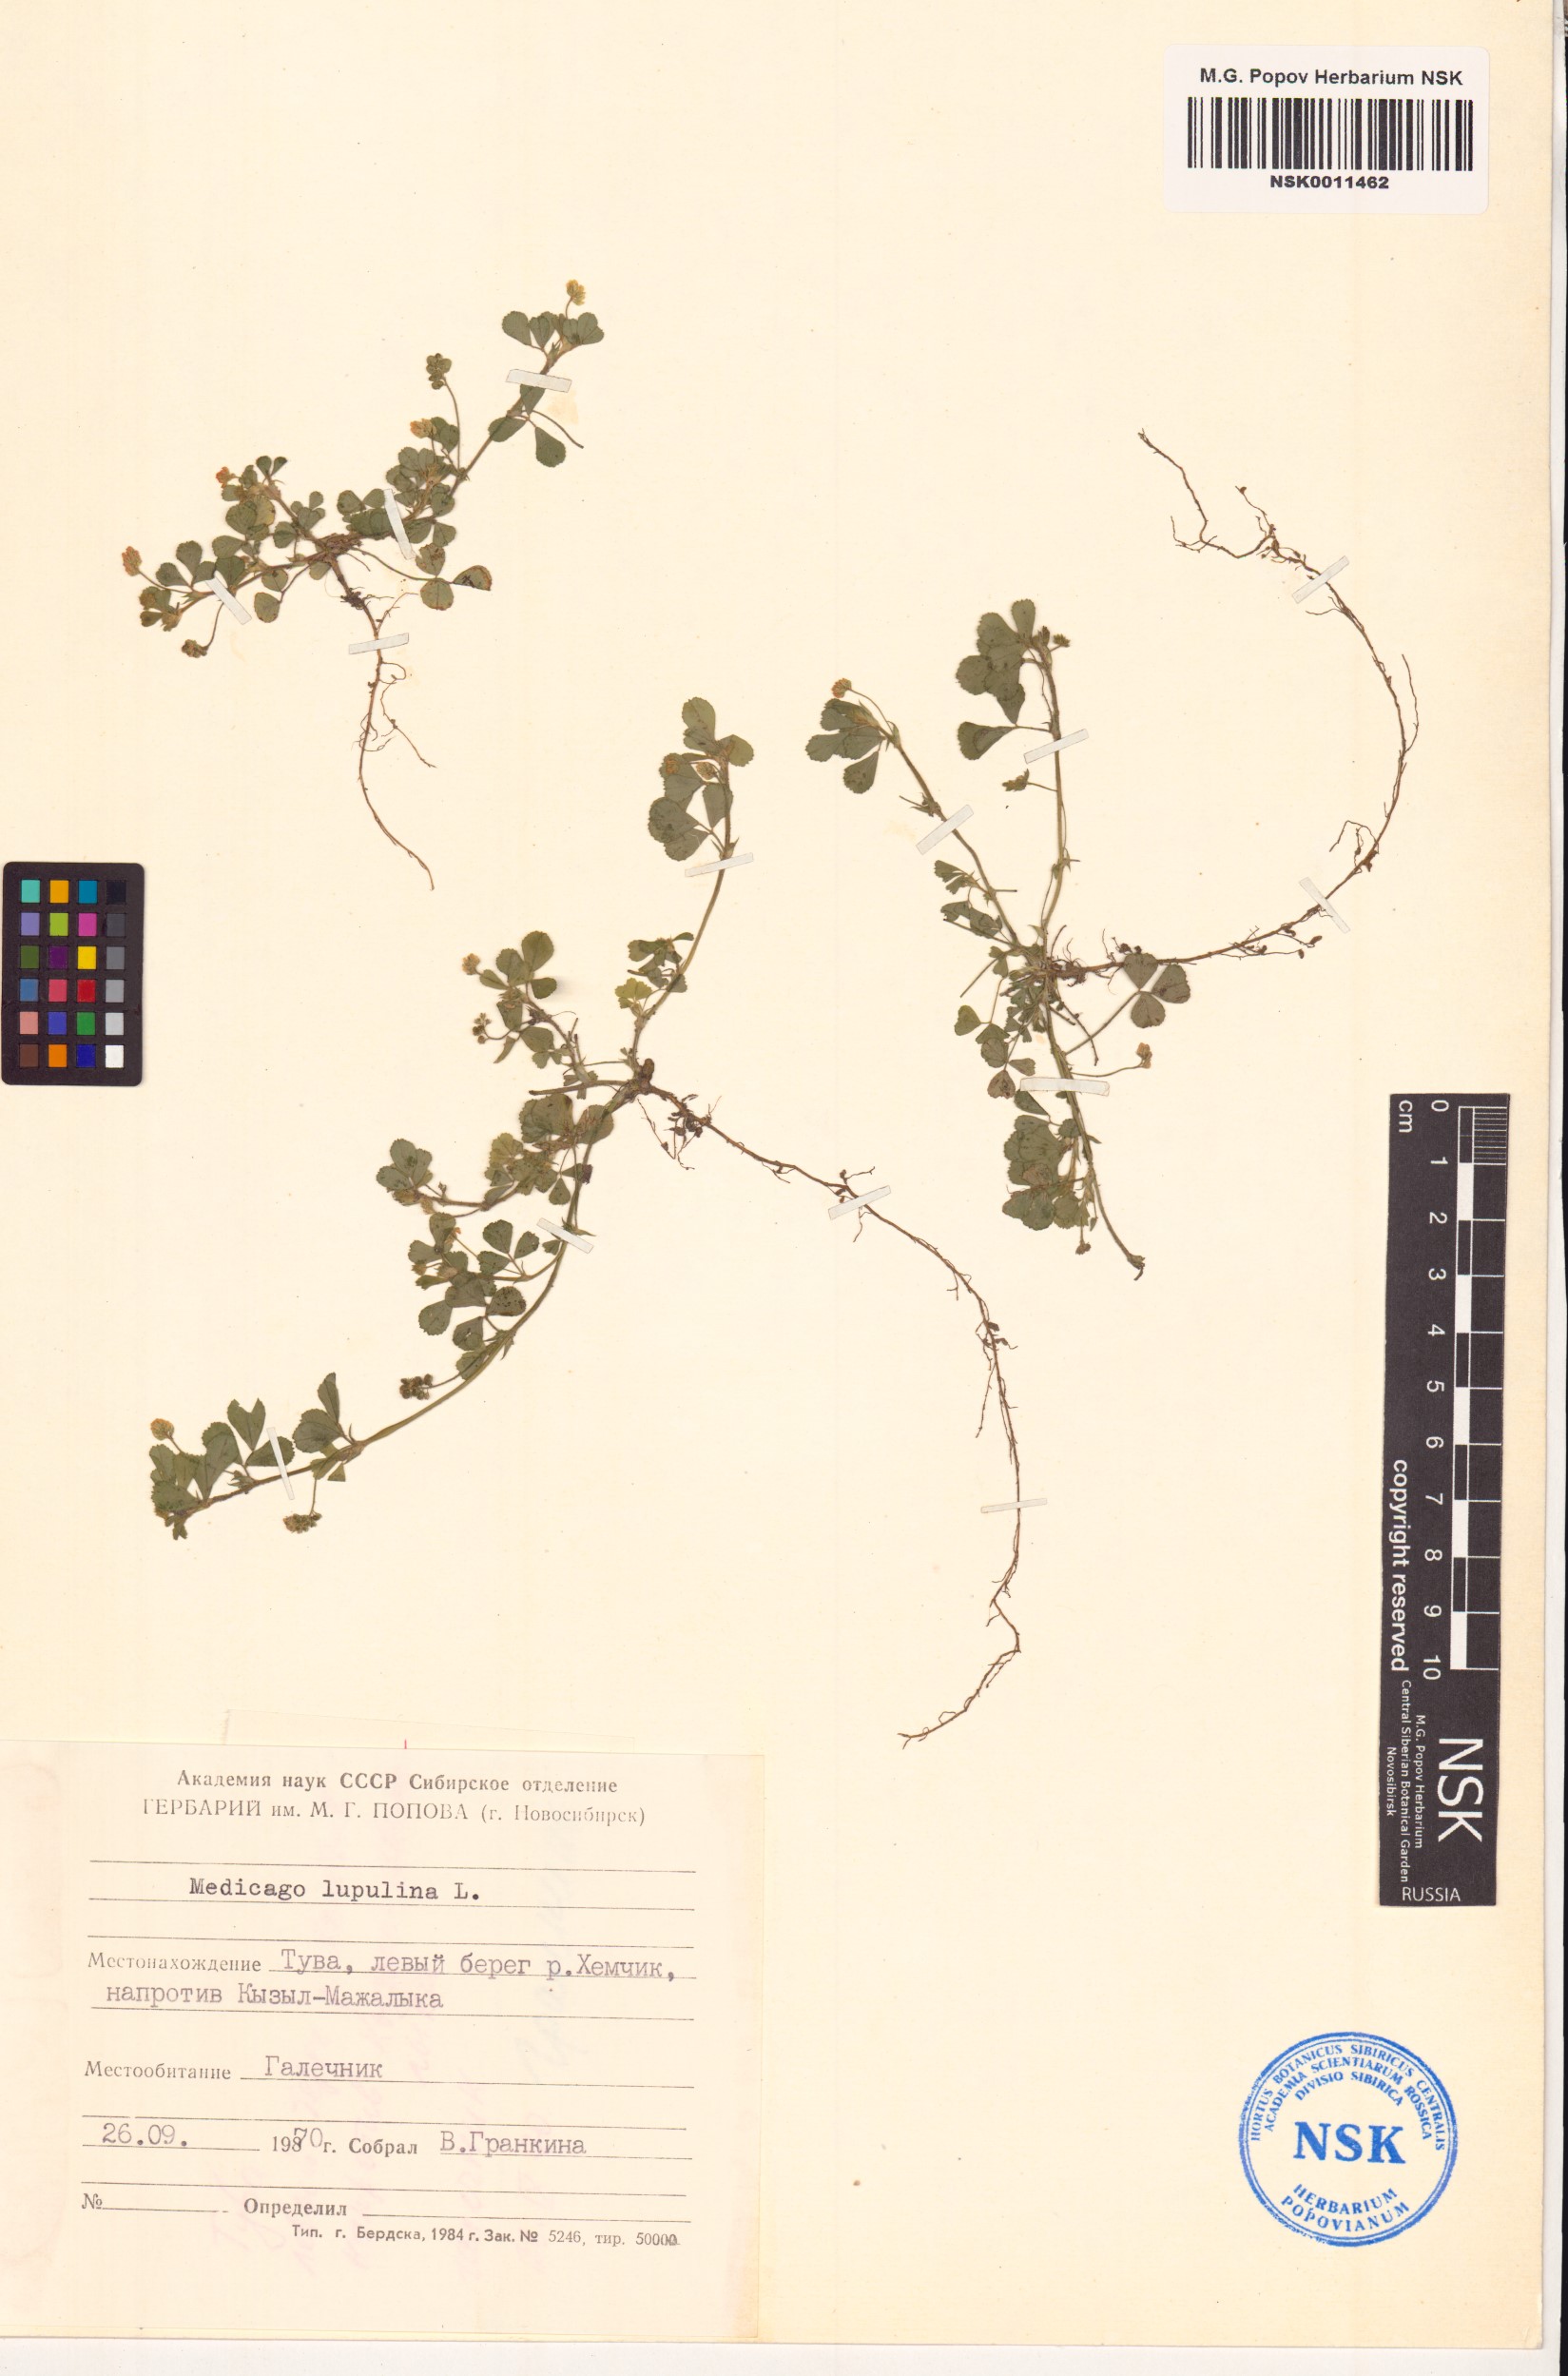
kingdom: Plantae
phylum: Tracheophyta
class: Magnoliopsida
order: Fabales
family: Fabaceae
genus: Medicago
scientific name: Medicago lupulina
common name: Black medick
